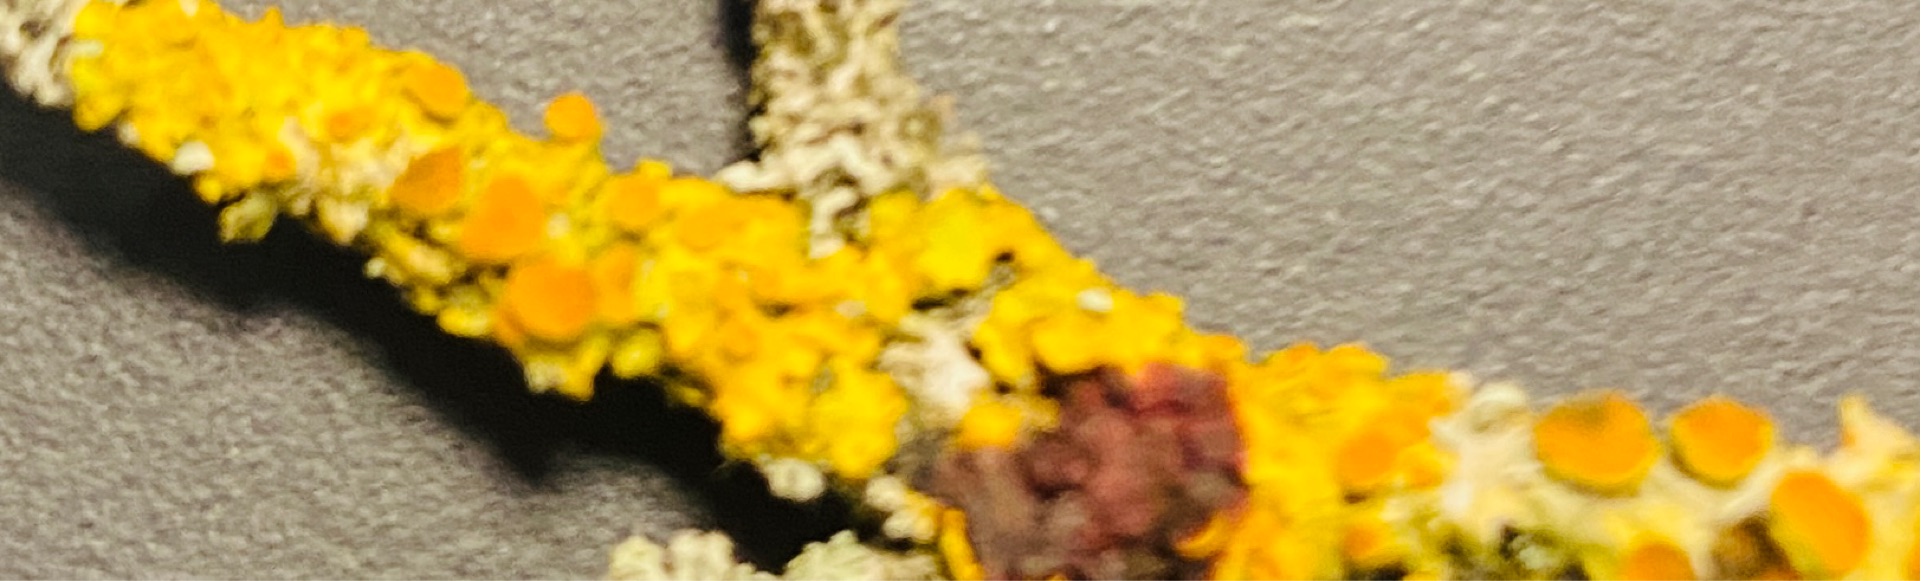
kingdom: Fungi
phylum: Ascomycota
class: Lecanoromycetes
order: Teloschistales
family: Teloschistaceae
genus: Xanthoria
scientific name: Xanthoria parietina
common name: Almindelig væggelav
